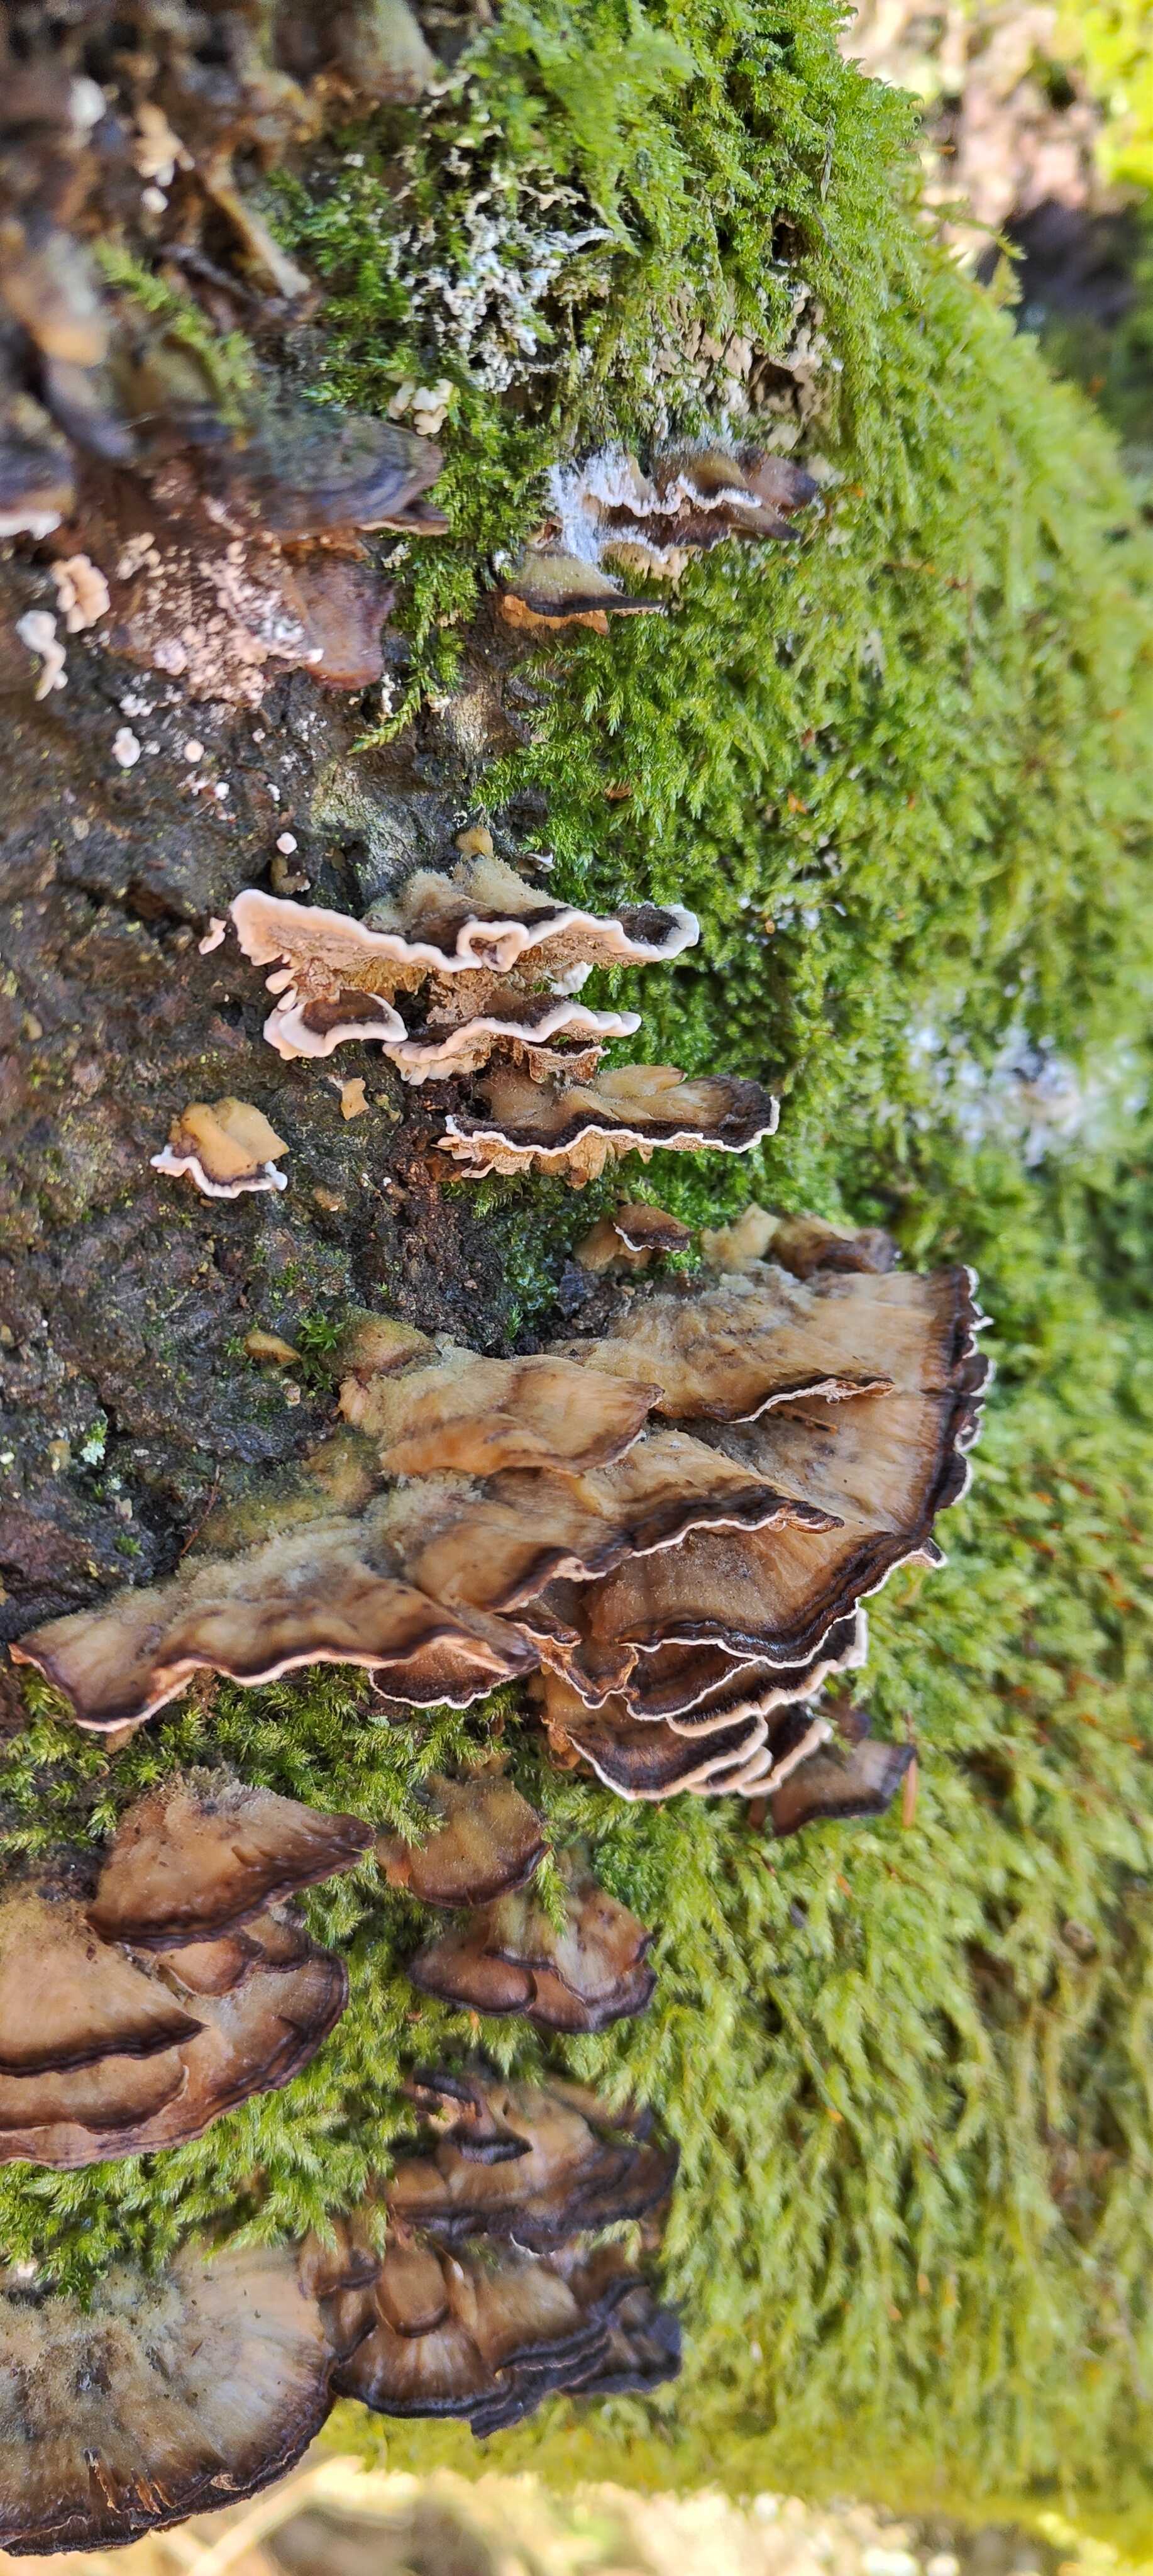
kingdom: Fungi
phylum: Basidiomycota
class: Agaricomycetes
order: Polyporales
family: Phanerochaetaceae
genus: Bjerkandera
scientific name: Bjerkandera adusta
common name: sveden sodporesvamp
